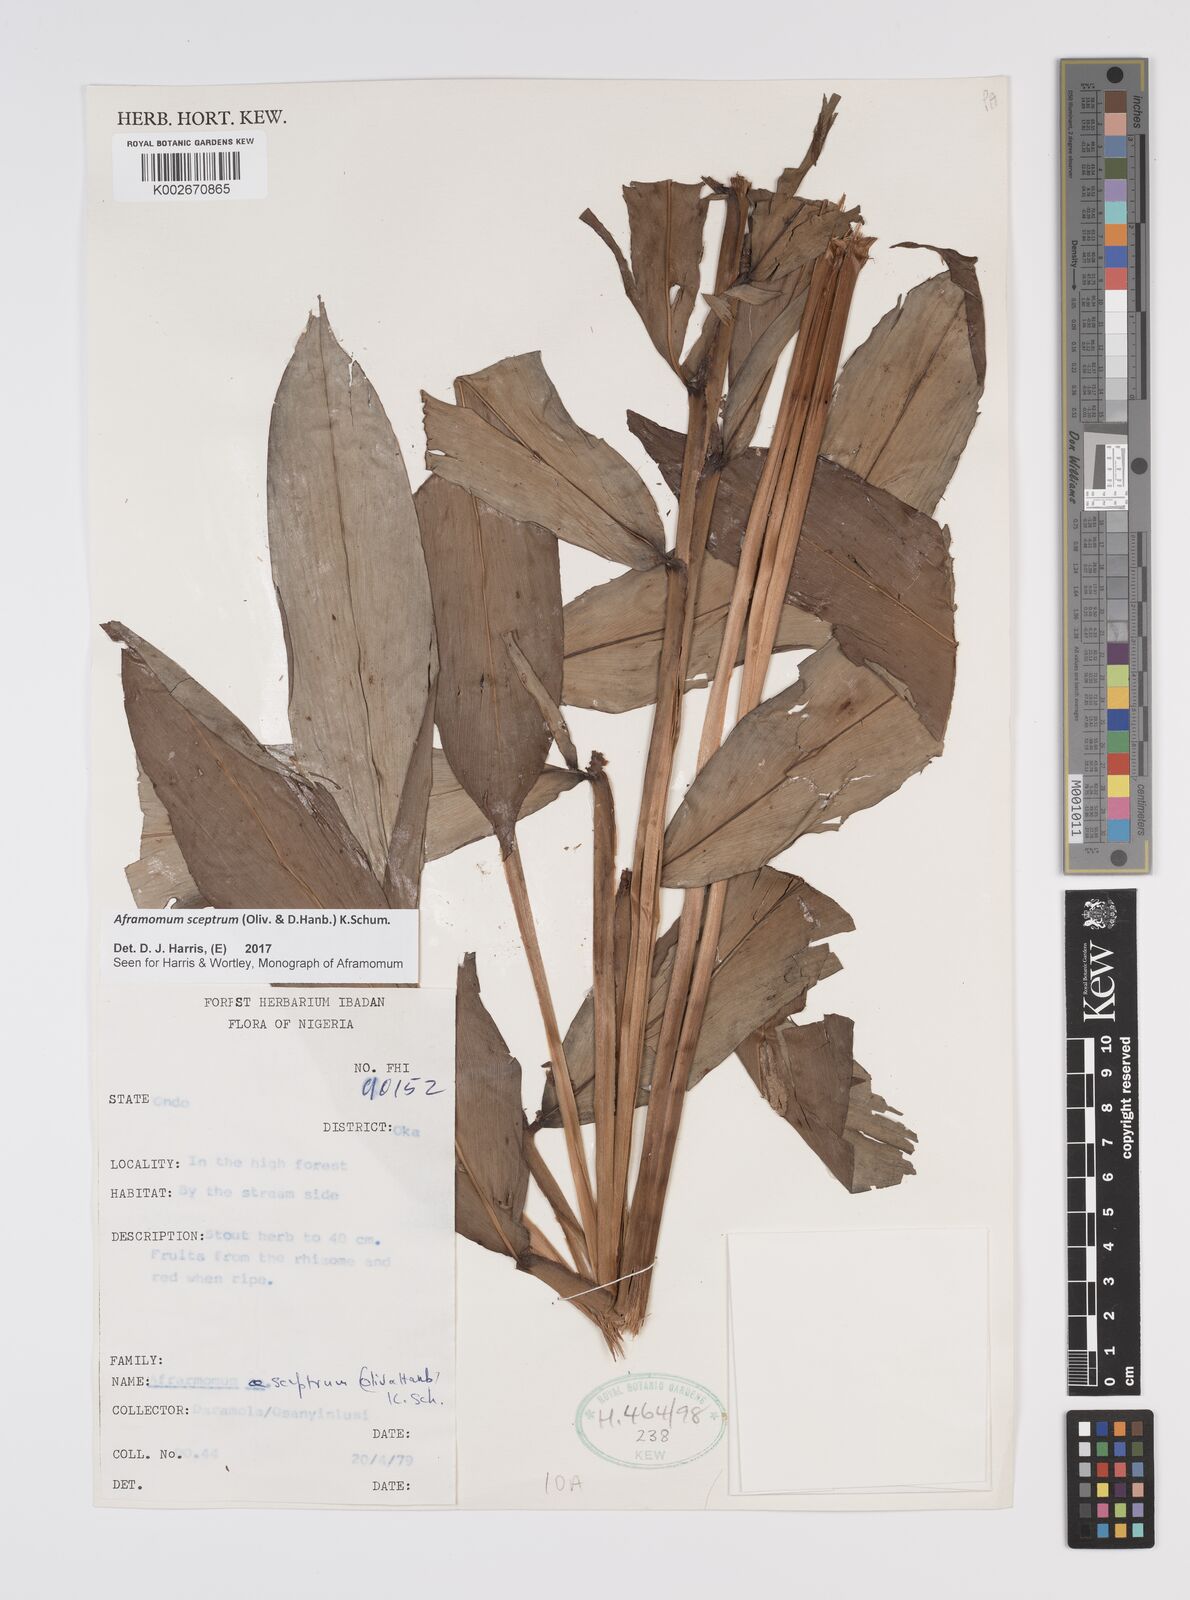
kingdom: Plantae
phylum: Tracheophyta
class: Liliopsida
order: Zingiberales
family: Zingiberaceae
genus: Aframomum
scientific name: Aframomum cereum
